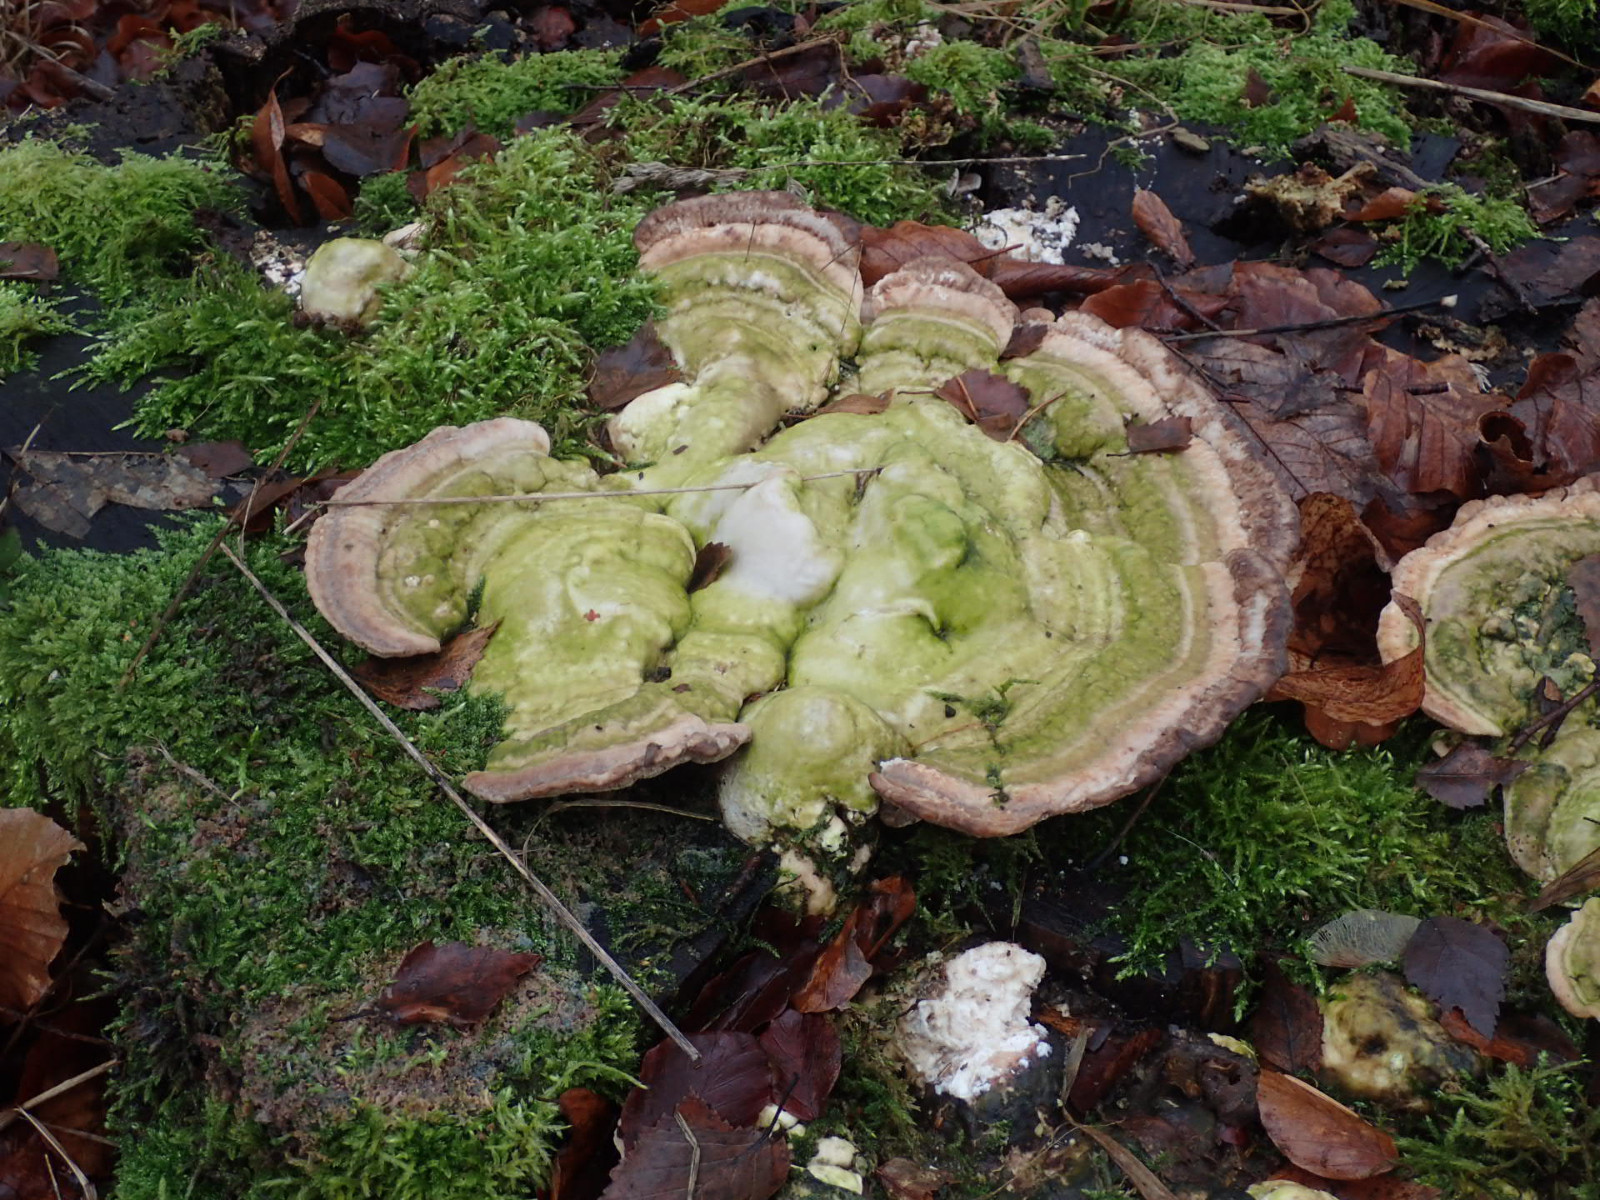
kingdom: Fungi
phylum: Basidiomycota
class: Agaricomycetes
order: Polyporales
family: Polyporaceae
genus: Trametes
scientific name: Trametes gibbosa
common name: puklet læderporesvamp
